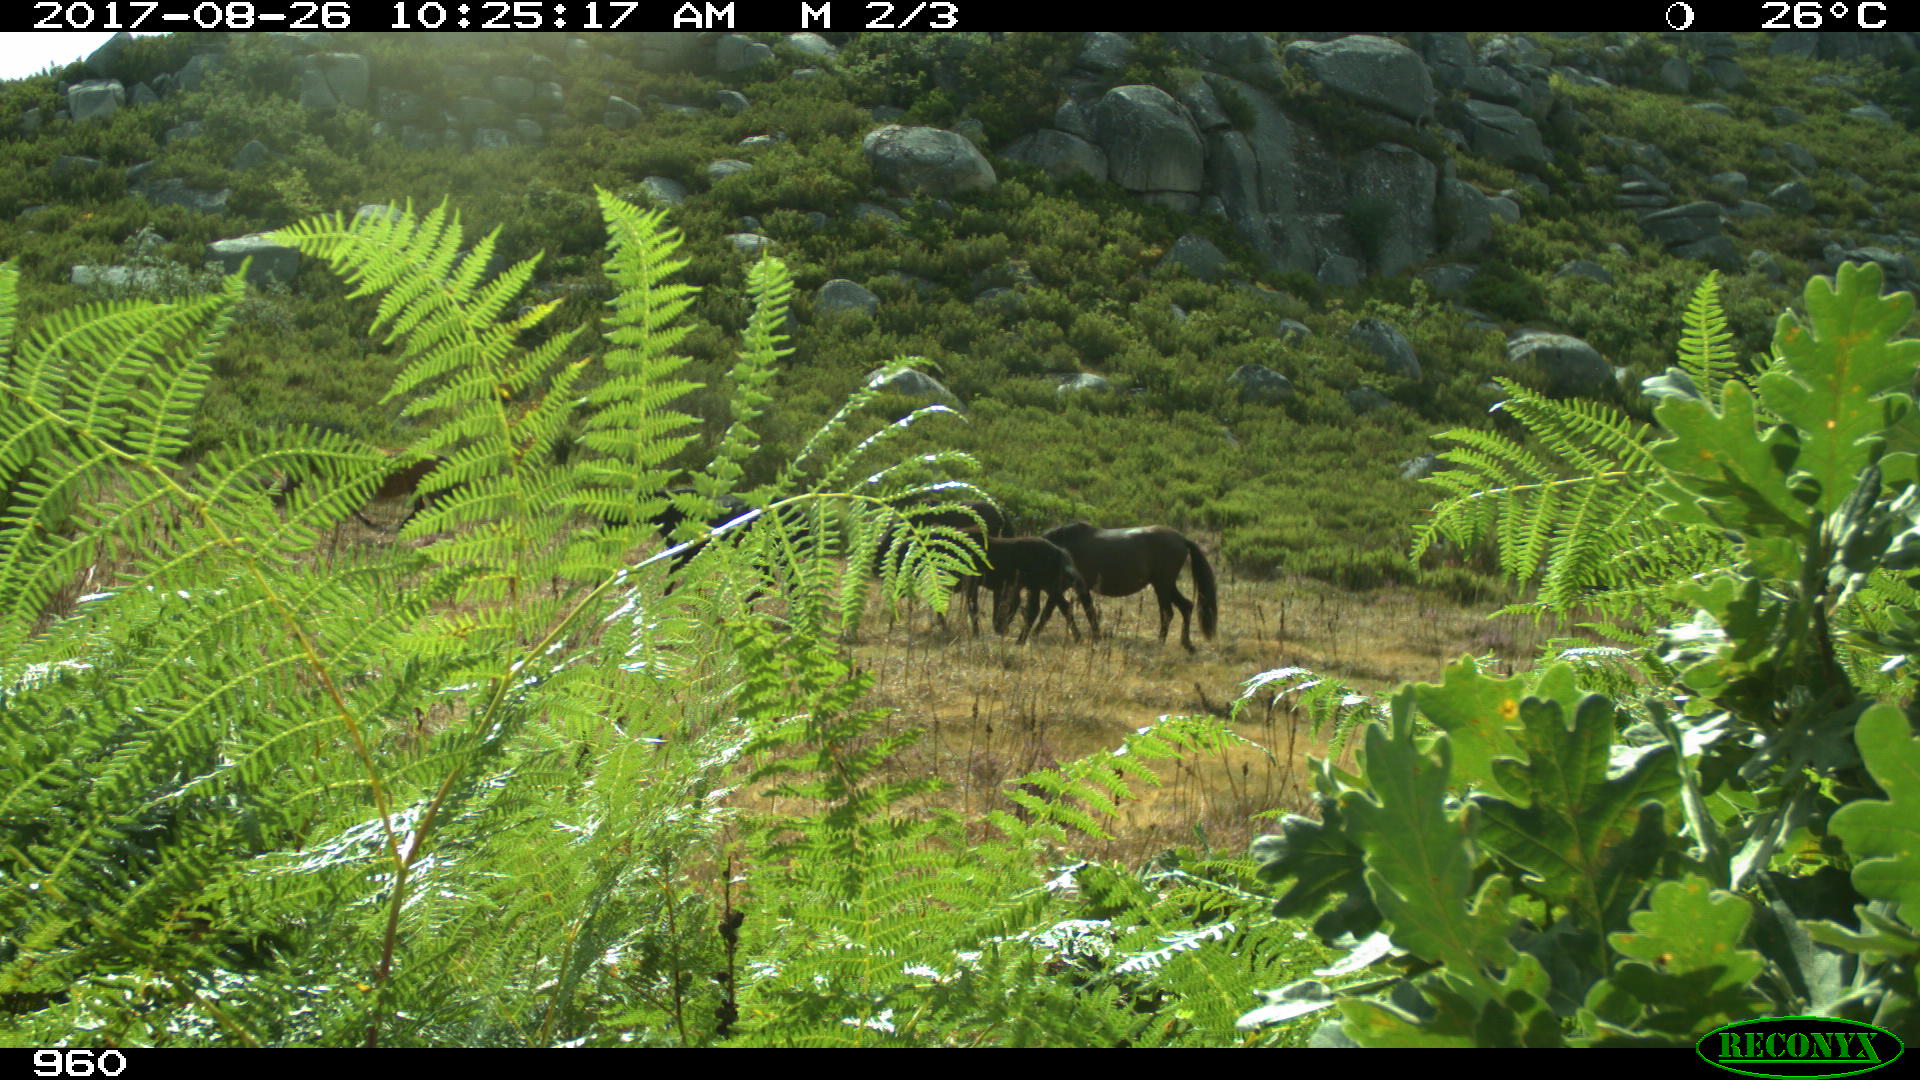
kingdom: Animalia
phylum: Chordata
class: Mammalia
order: Perissodactyla
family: Equidae
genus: Equus
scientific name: Equus caballus
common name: Horse
